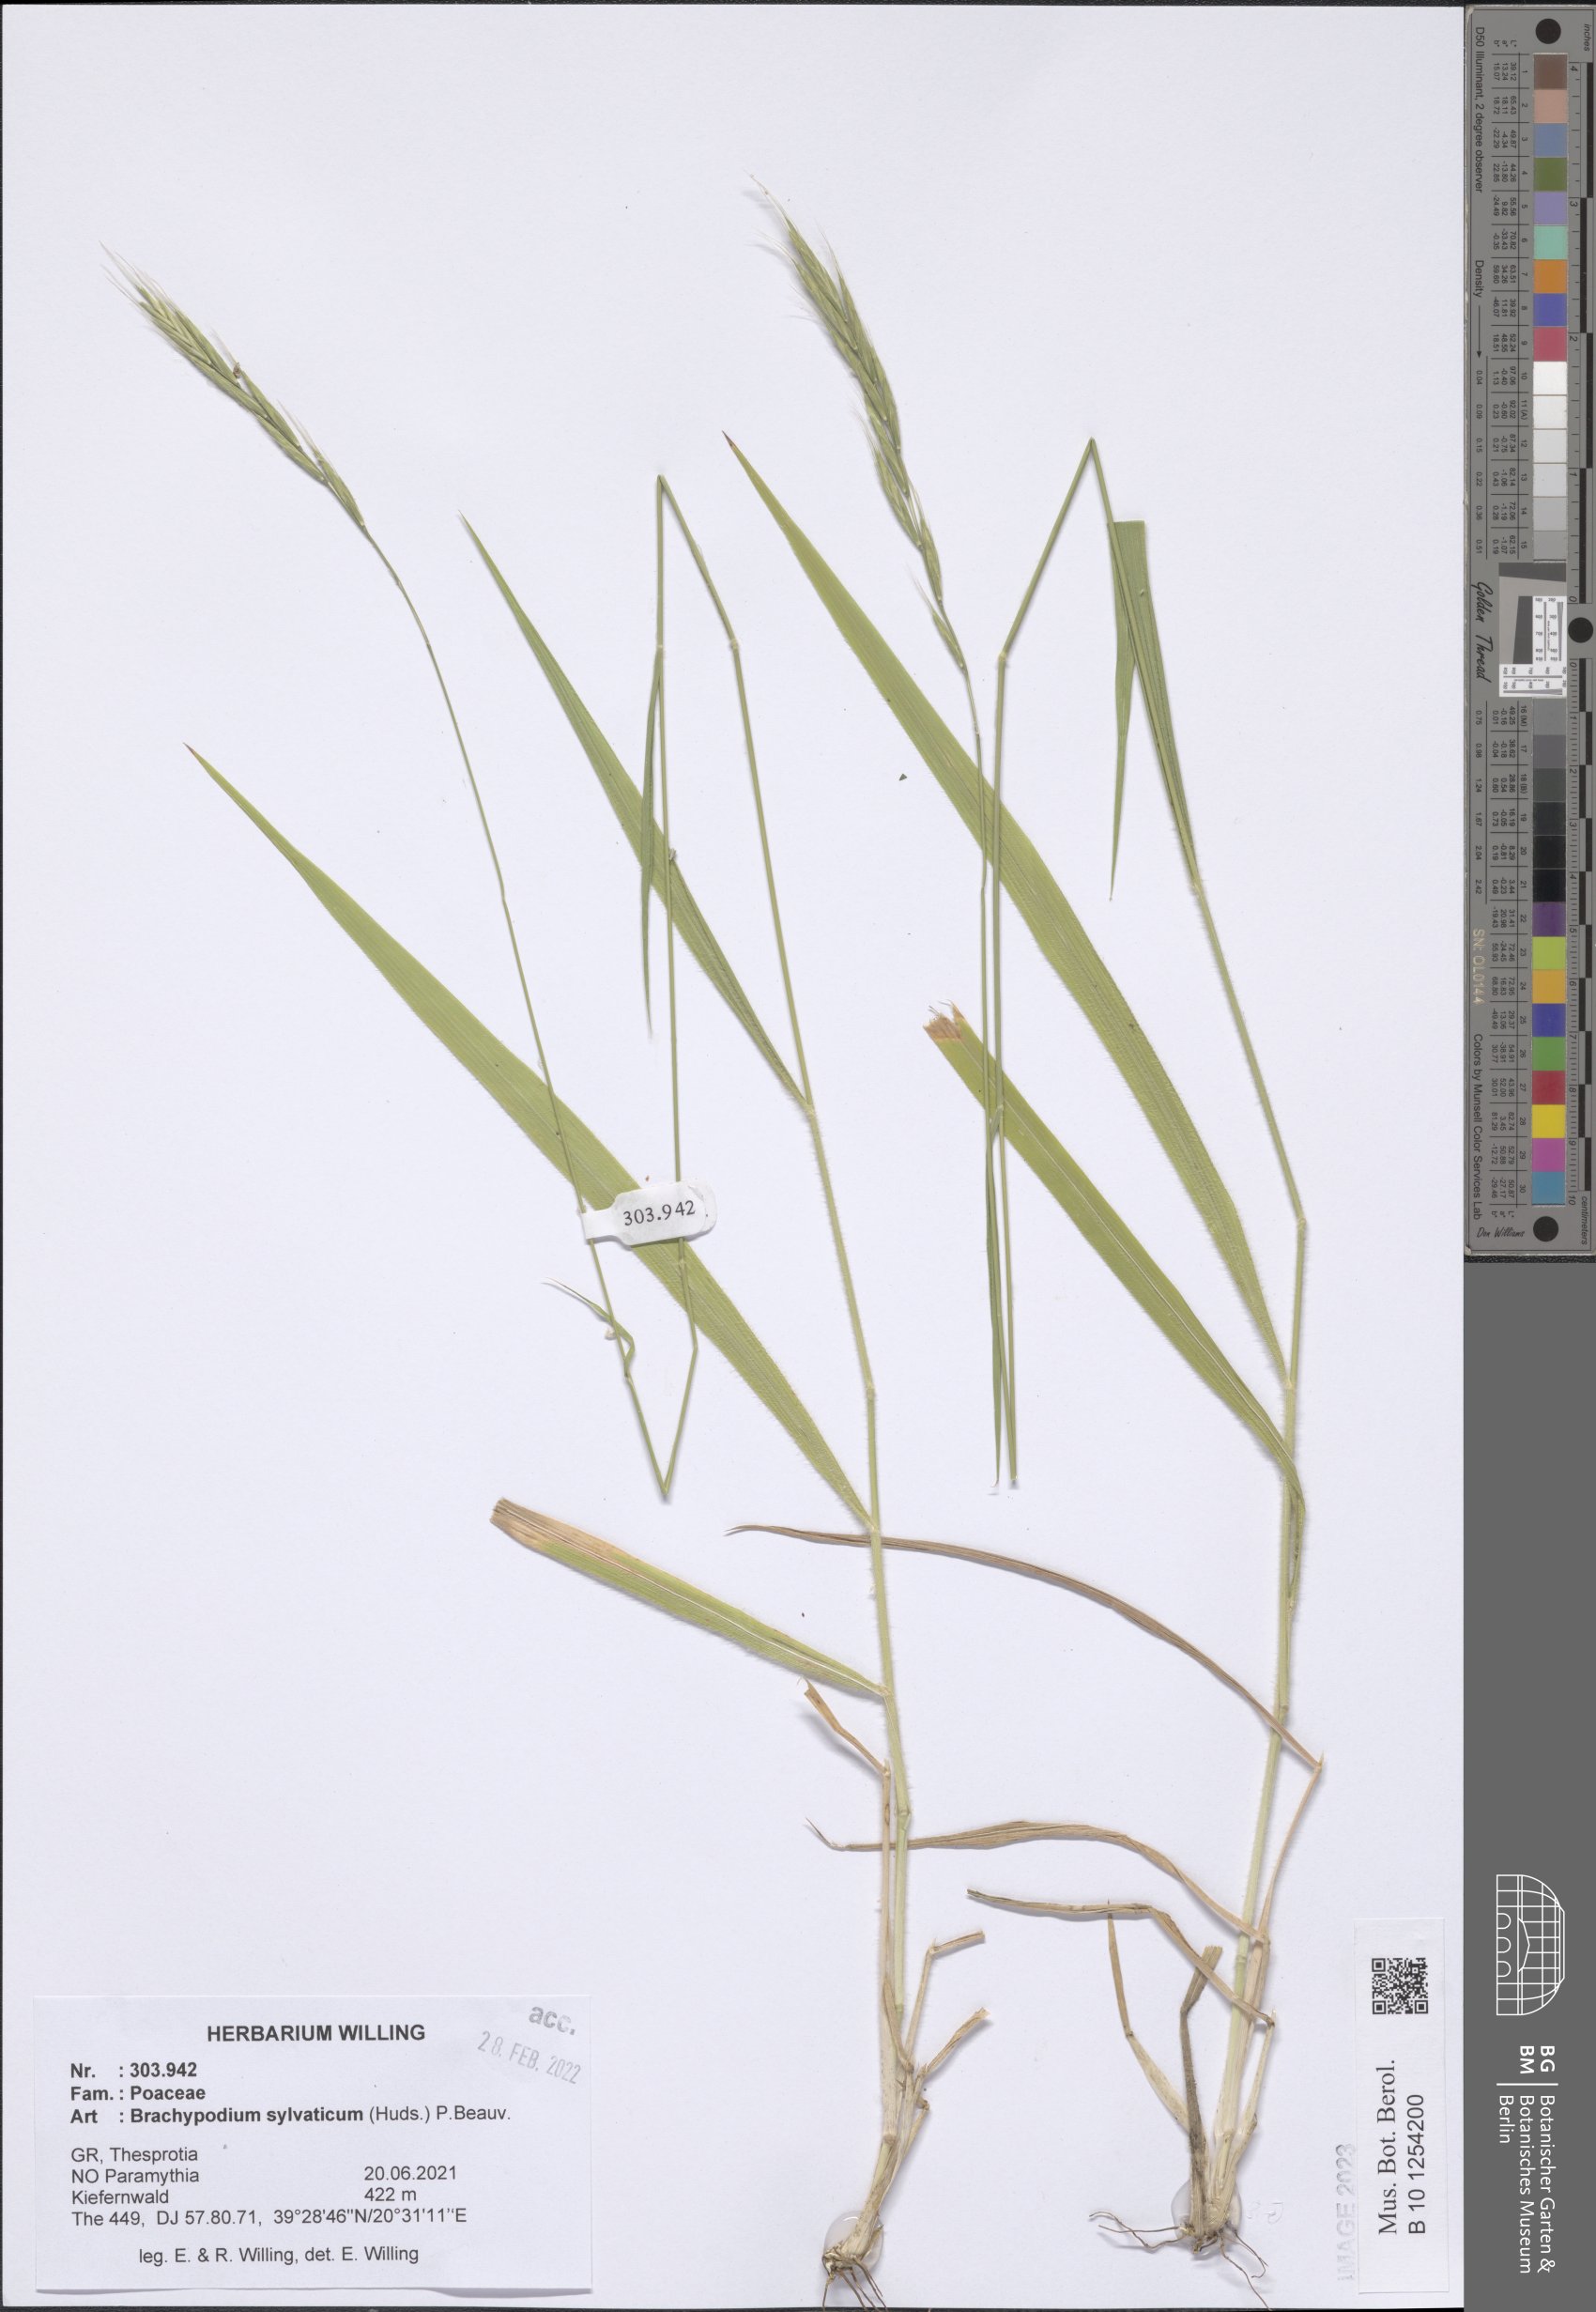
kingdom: Plantae
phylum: Tracheophyta
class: Liliopsida
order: Poales
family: Poaceae
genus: Brachypodium
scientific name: Brachypodium sylvaticum
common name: False-brome
